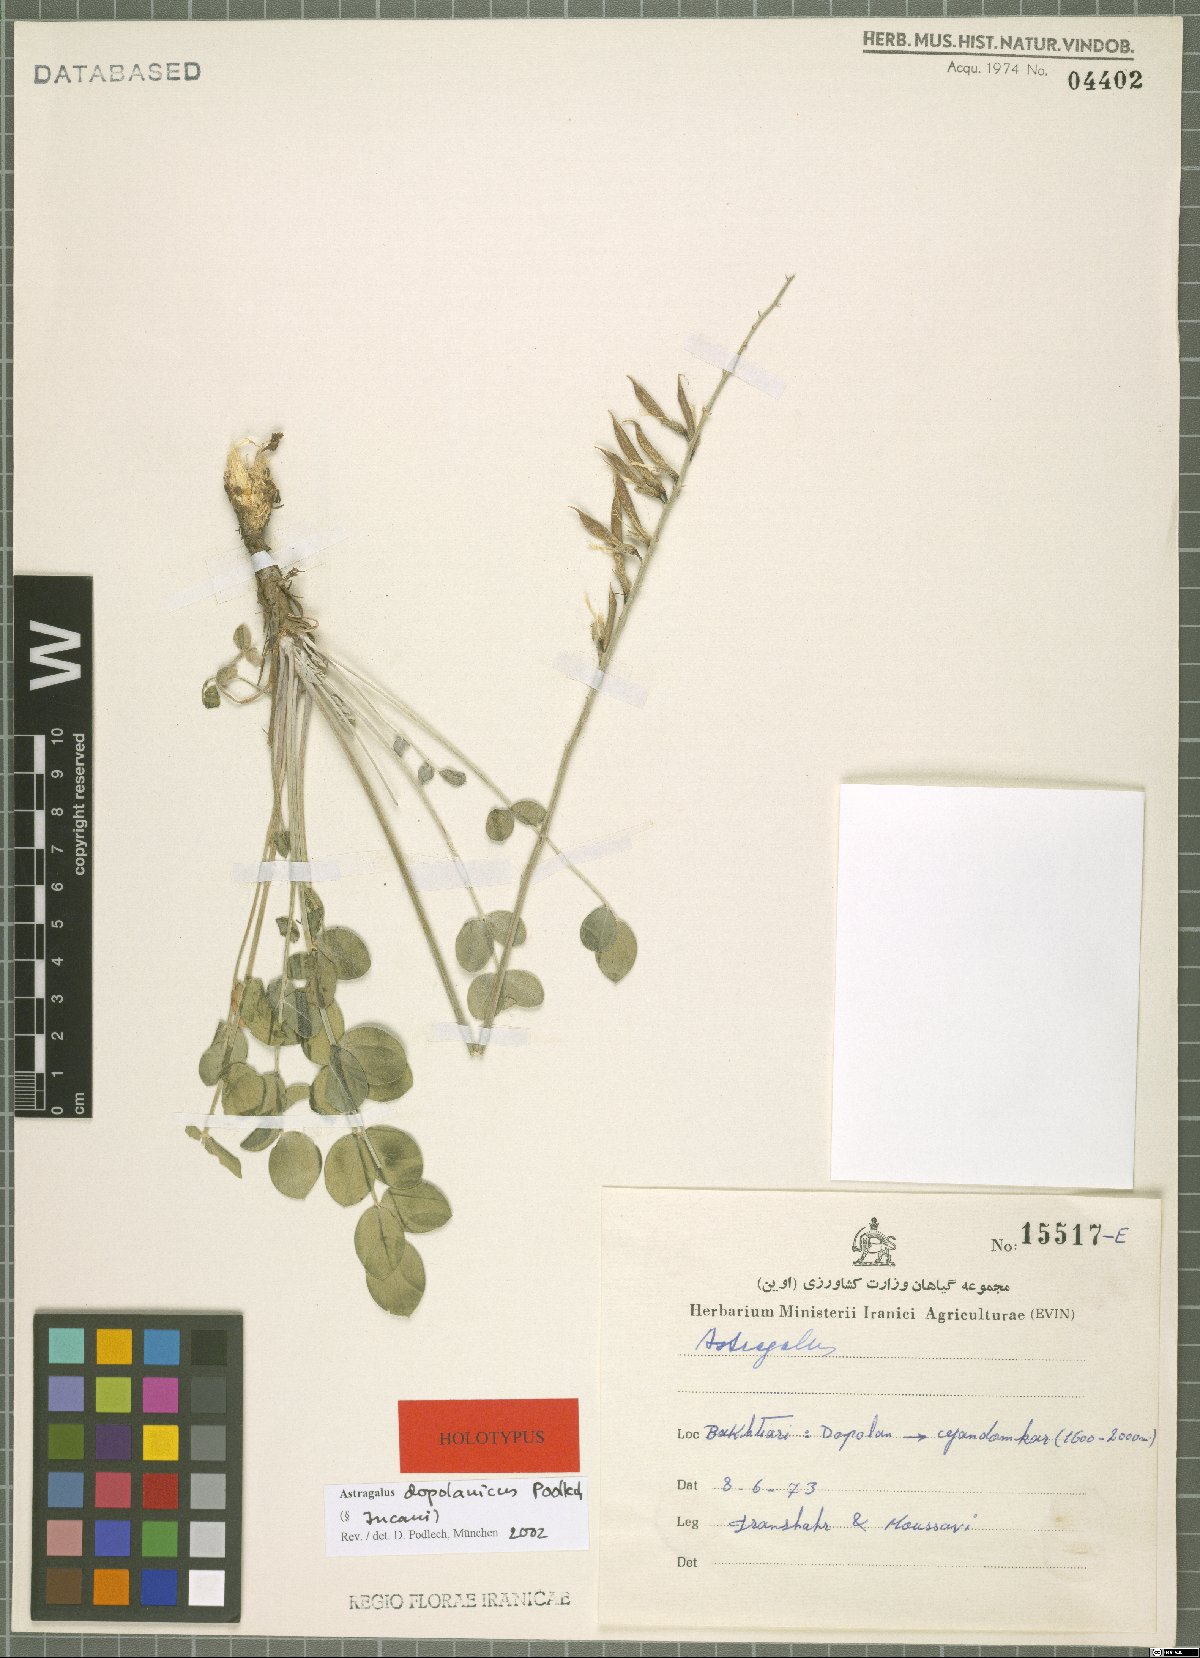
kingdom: Plantae
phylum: Tracheophyta
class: Magnoliopsida
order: Fabales
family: Fabaceae
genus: Astragalus
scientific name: Astragalus dopolanicus
